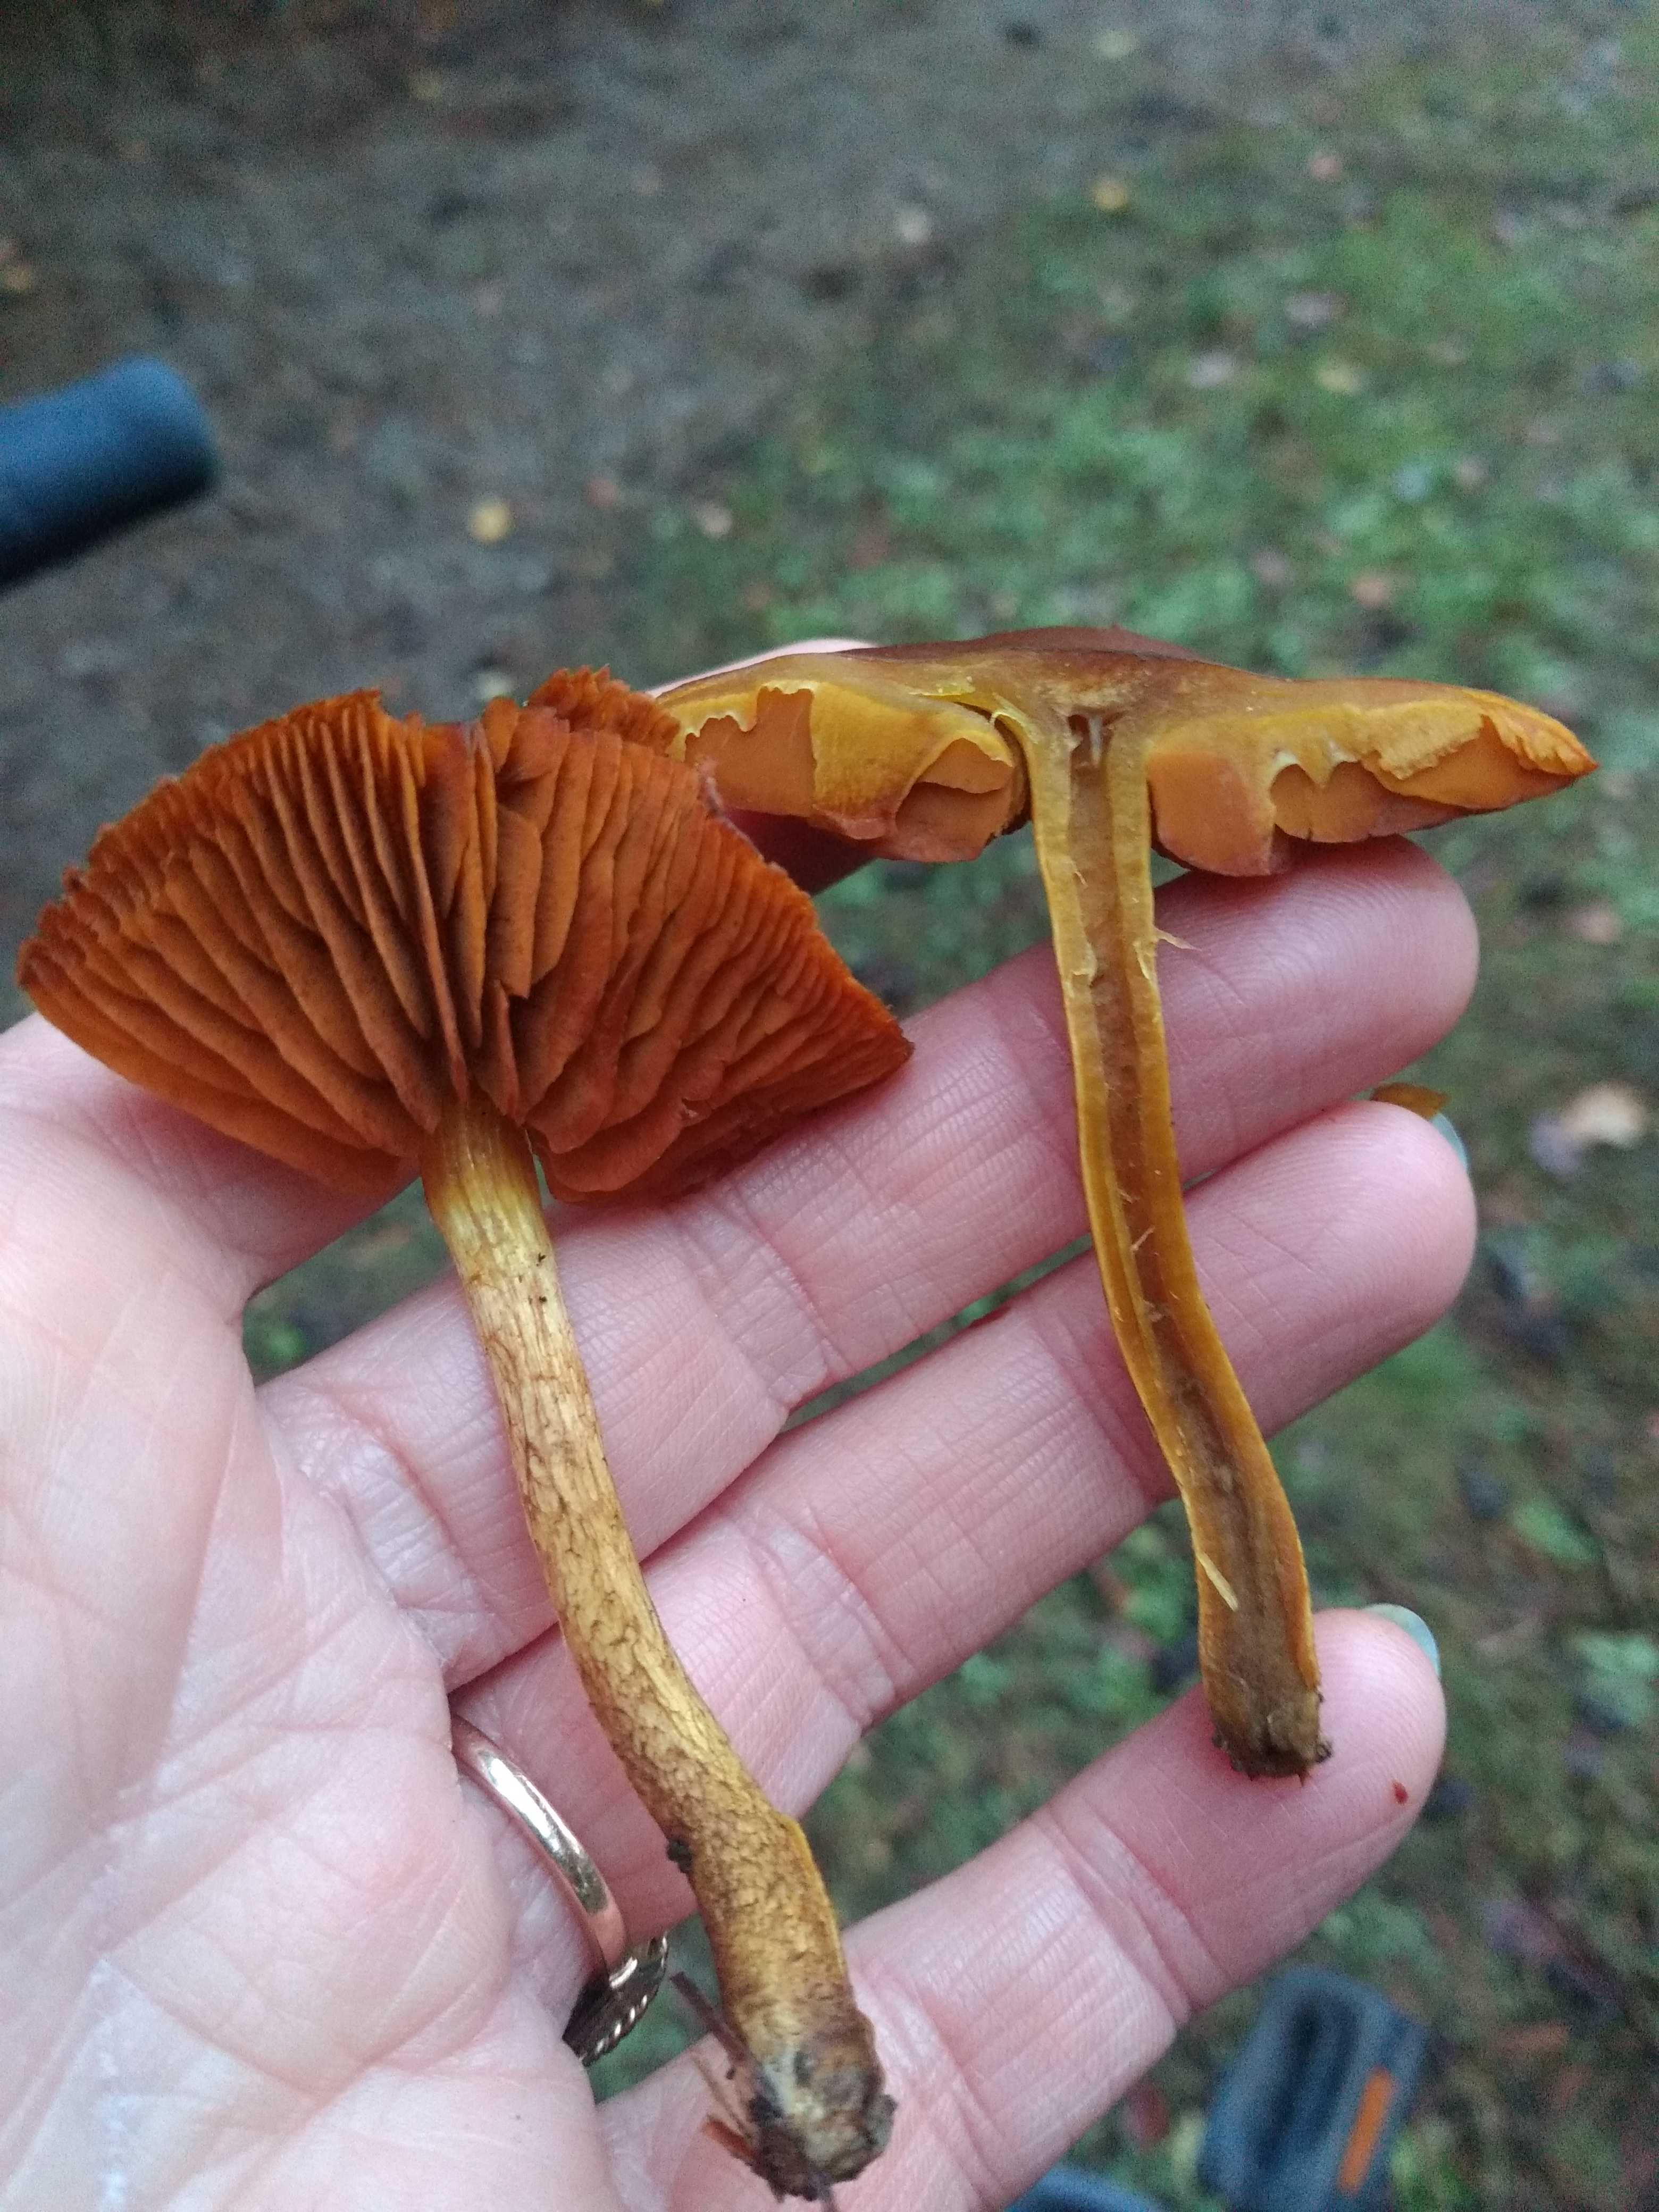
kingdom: Fungi
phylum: Basidiomycota
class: Agaricomycetes
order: Agaricales
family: Cortinariaceae
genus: Cortinarius
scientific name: Cortinarius
